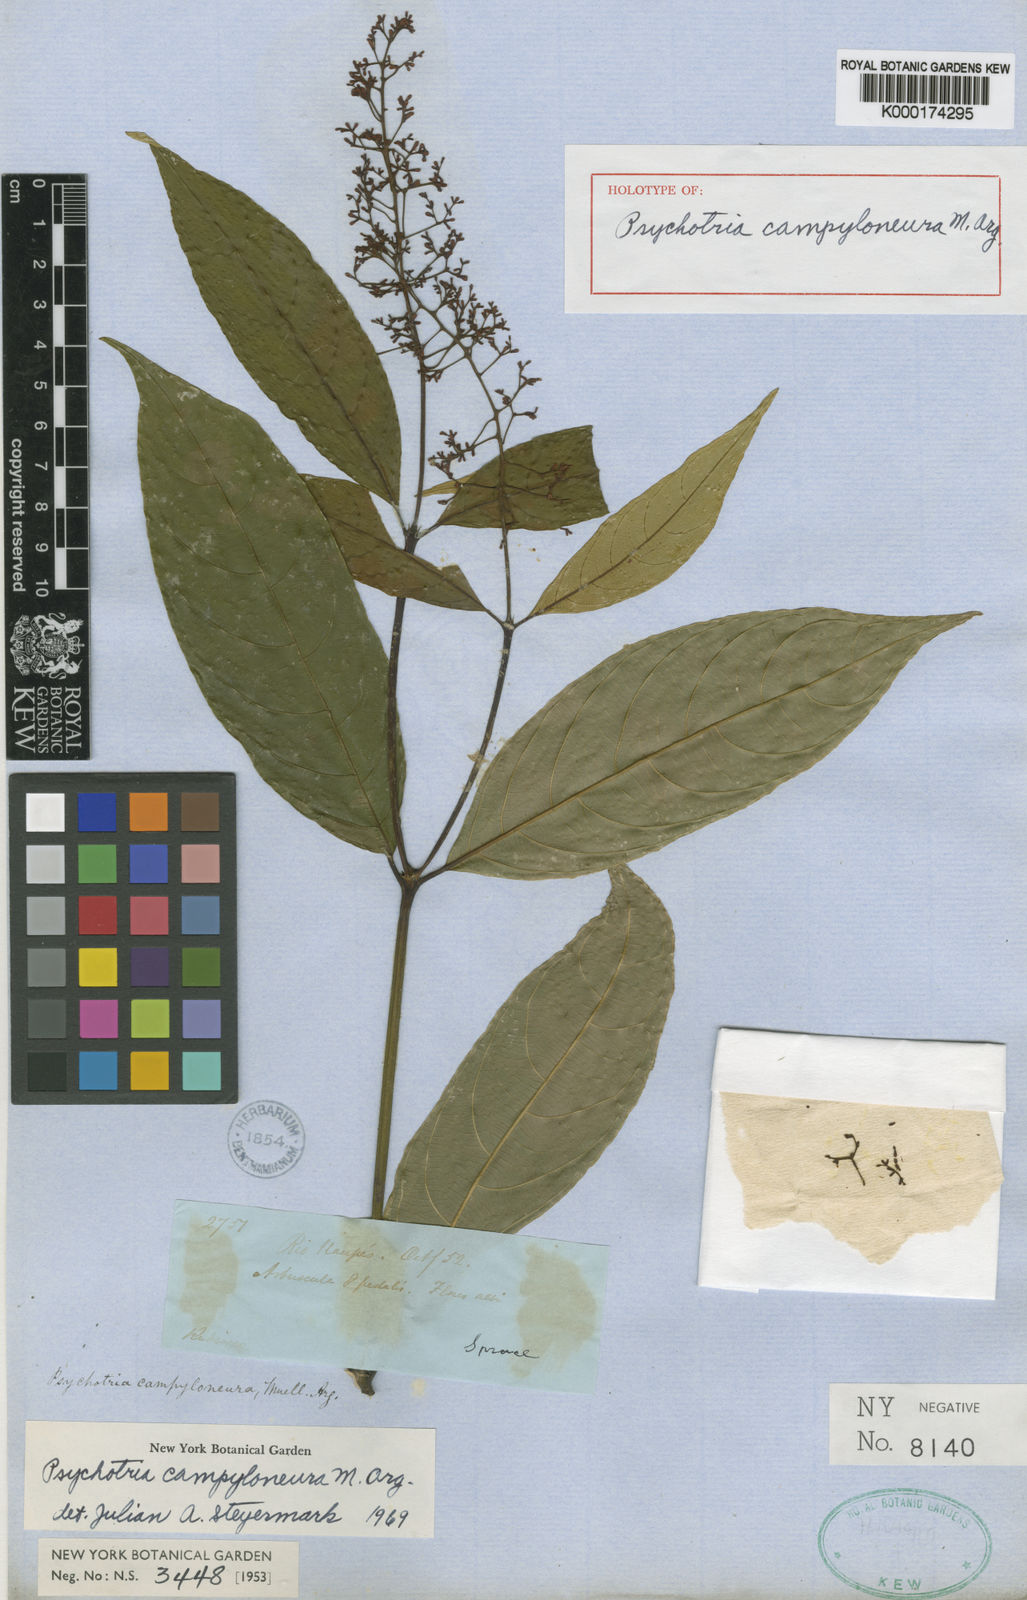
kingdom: Plantae
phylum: Tracheophyta
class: Magnoliopsida
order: Gentianales
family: Rubiaceae
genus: Palicourea
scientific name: Palicourea deflexa
